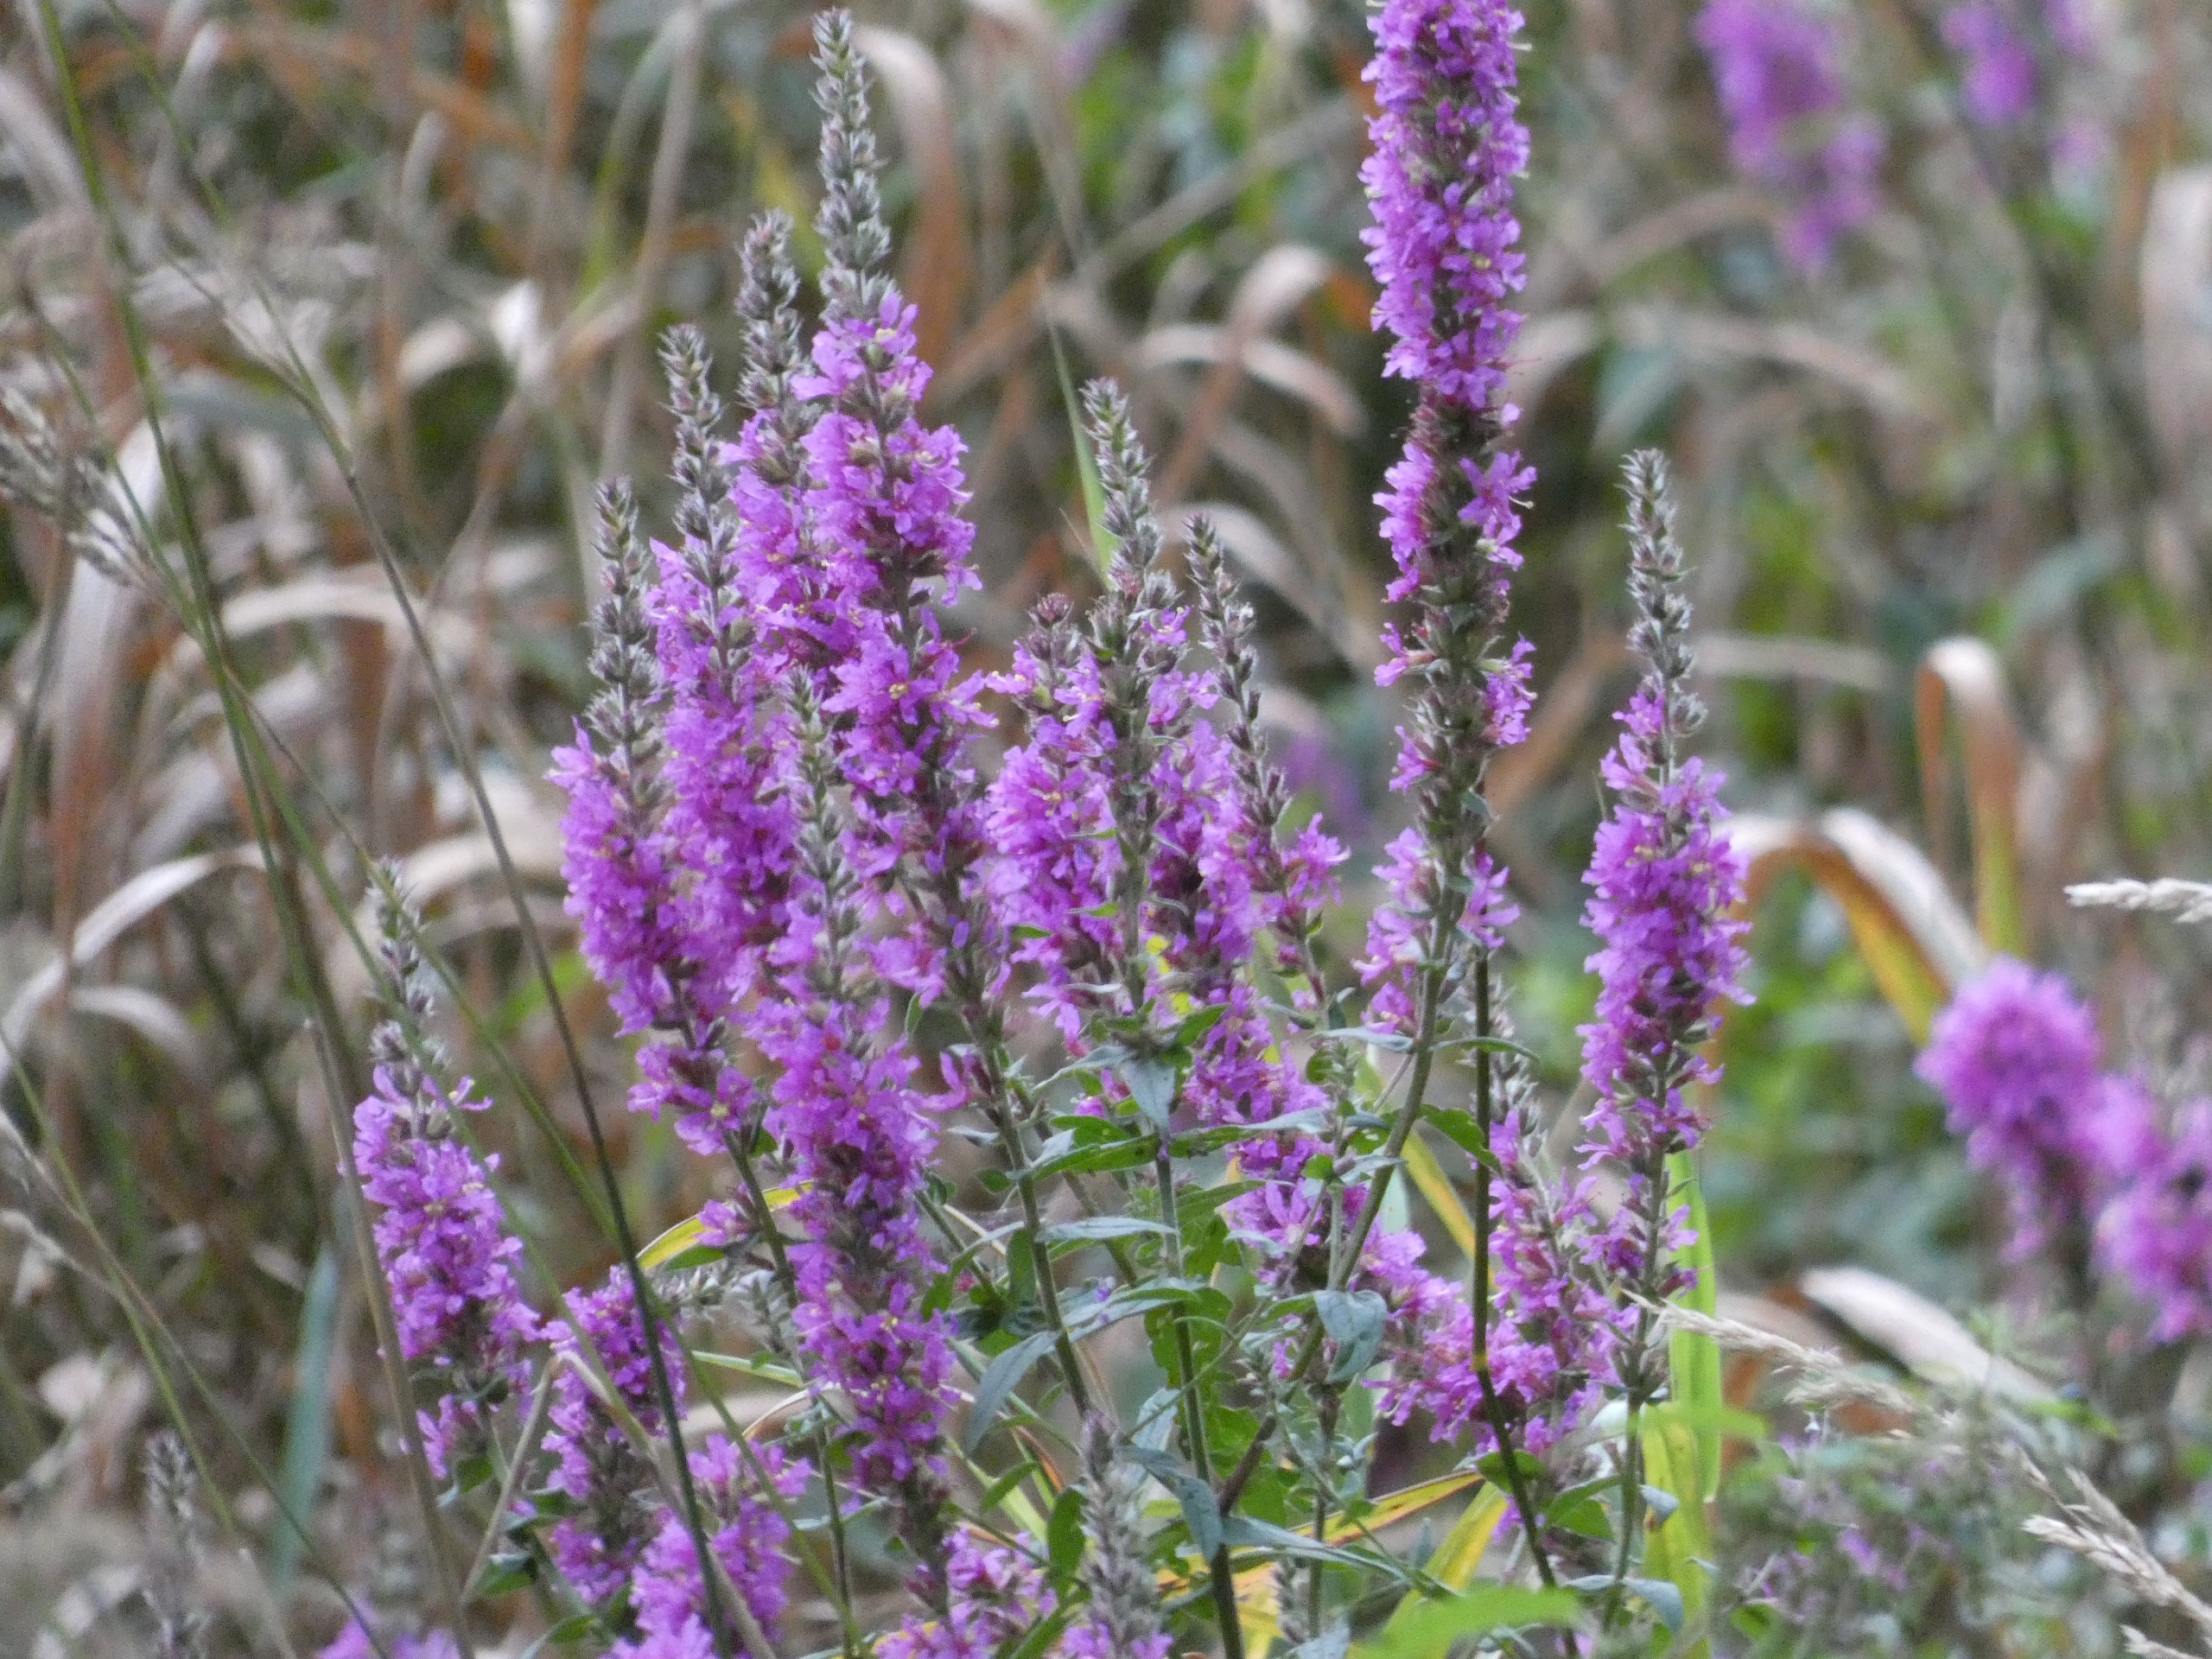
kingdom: Plantae
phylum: Tracheophyta
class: Magnoliopsida
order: Myrtales
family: Lythraceae
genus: Lythrum
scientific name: Lythrum salicaria
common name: Kattehale
